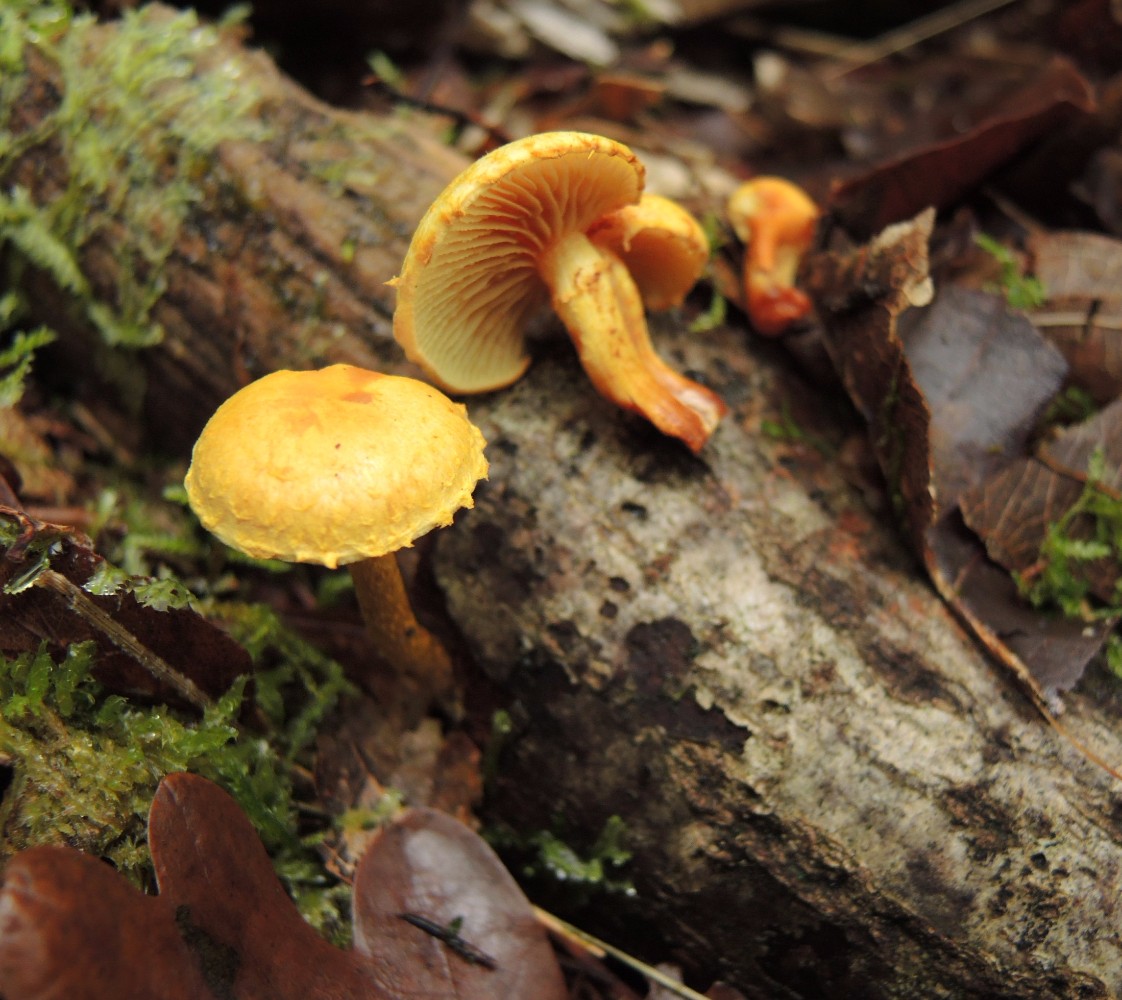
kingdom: Fungi
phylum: Basidiomycota
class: Agaricomycetes
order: Agaricales
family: Strophariaceae
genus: Pholiota
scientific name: Pholiota tuberculosa
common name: finskællet skælhat
